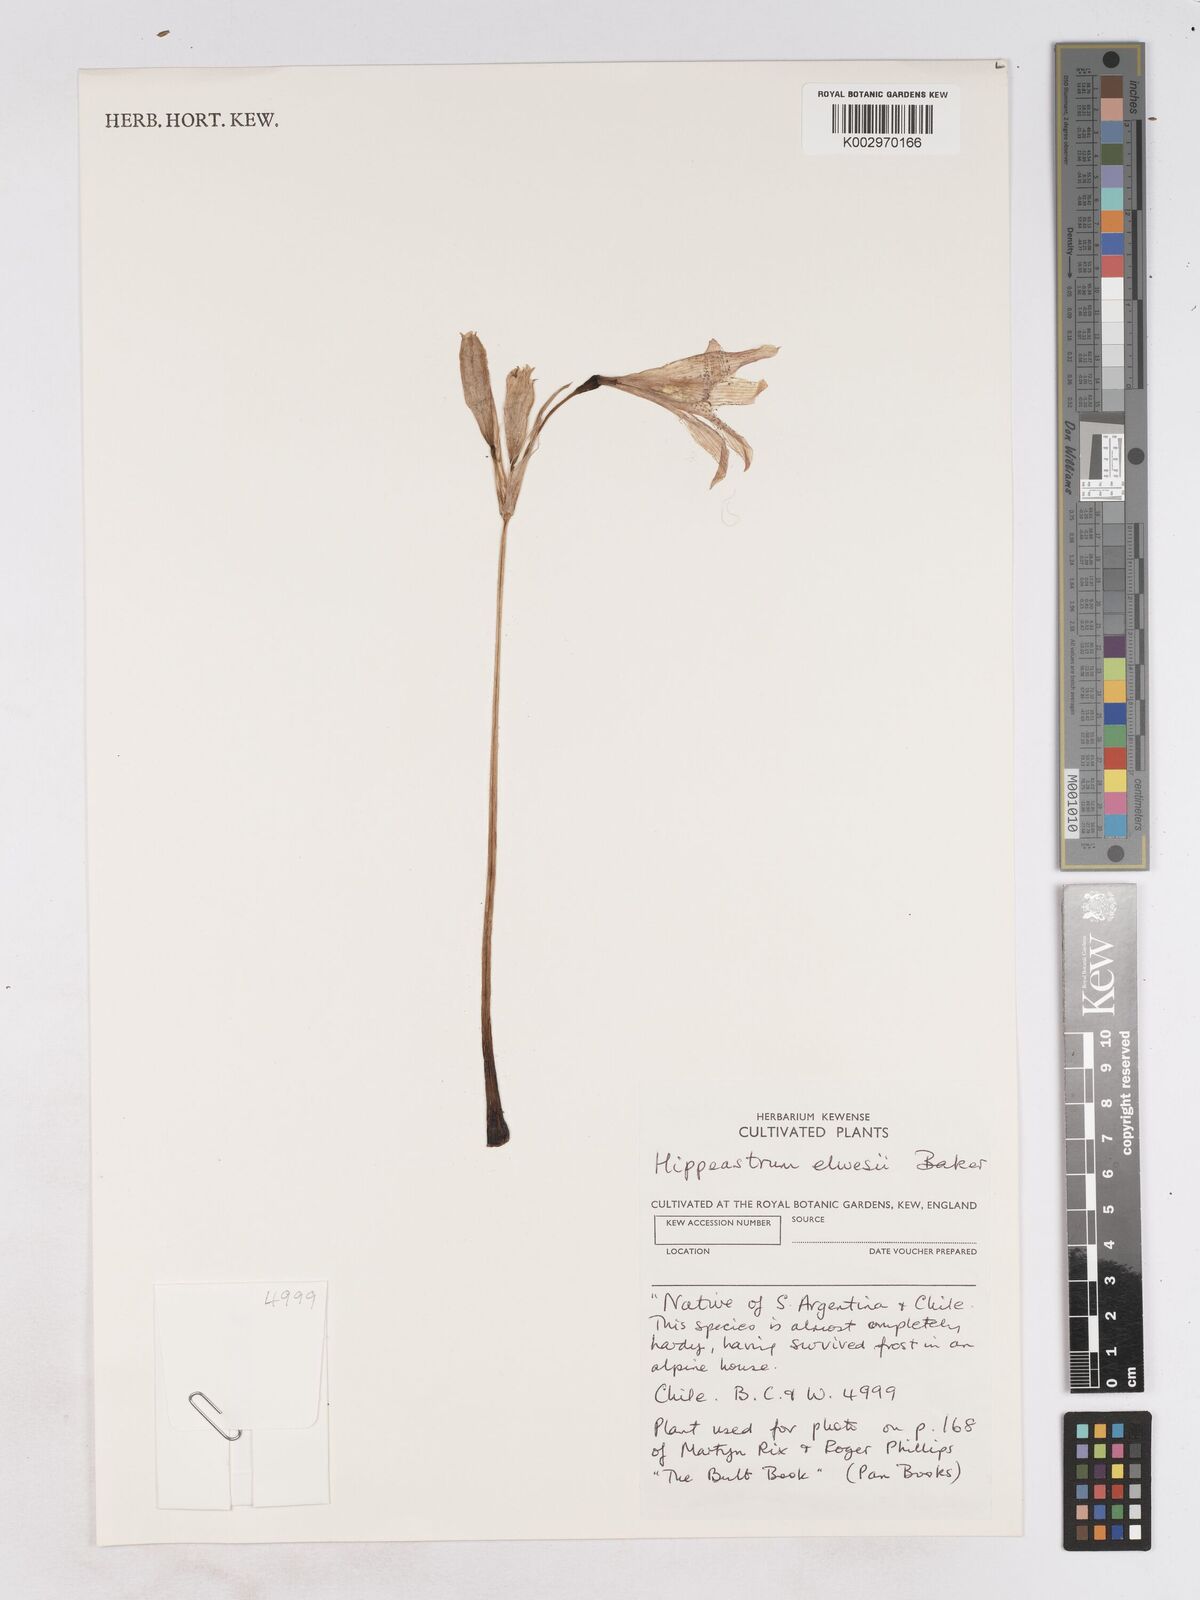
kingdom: Plantae
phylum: Tracheophyta
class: Liliopsida
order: Asparagales
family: Amaryllidaceae
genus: Zephyranthes
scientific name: Zephyranthes elwesii
